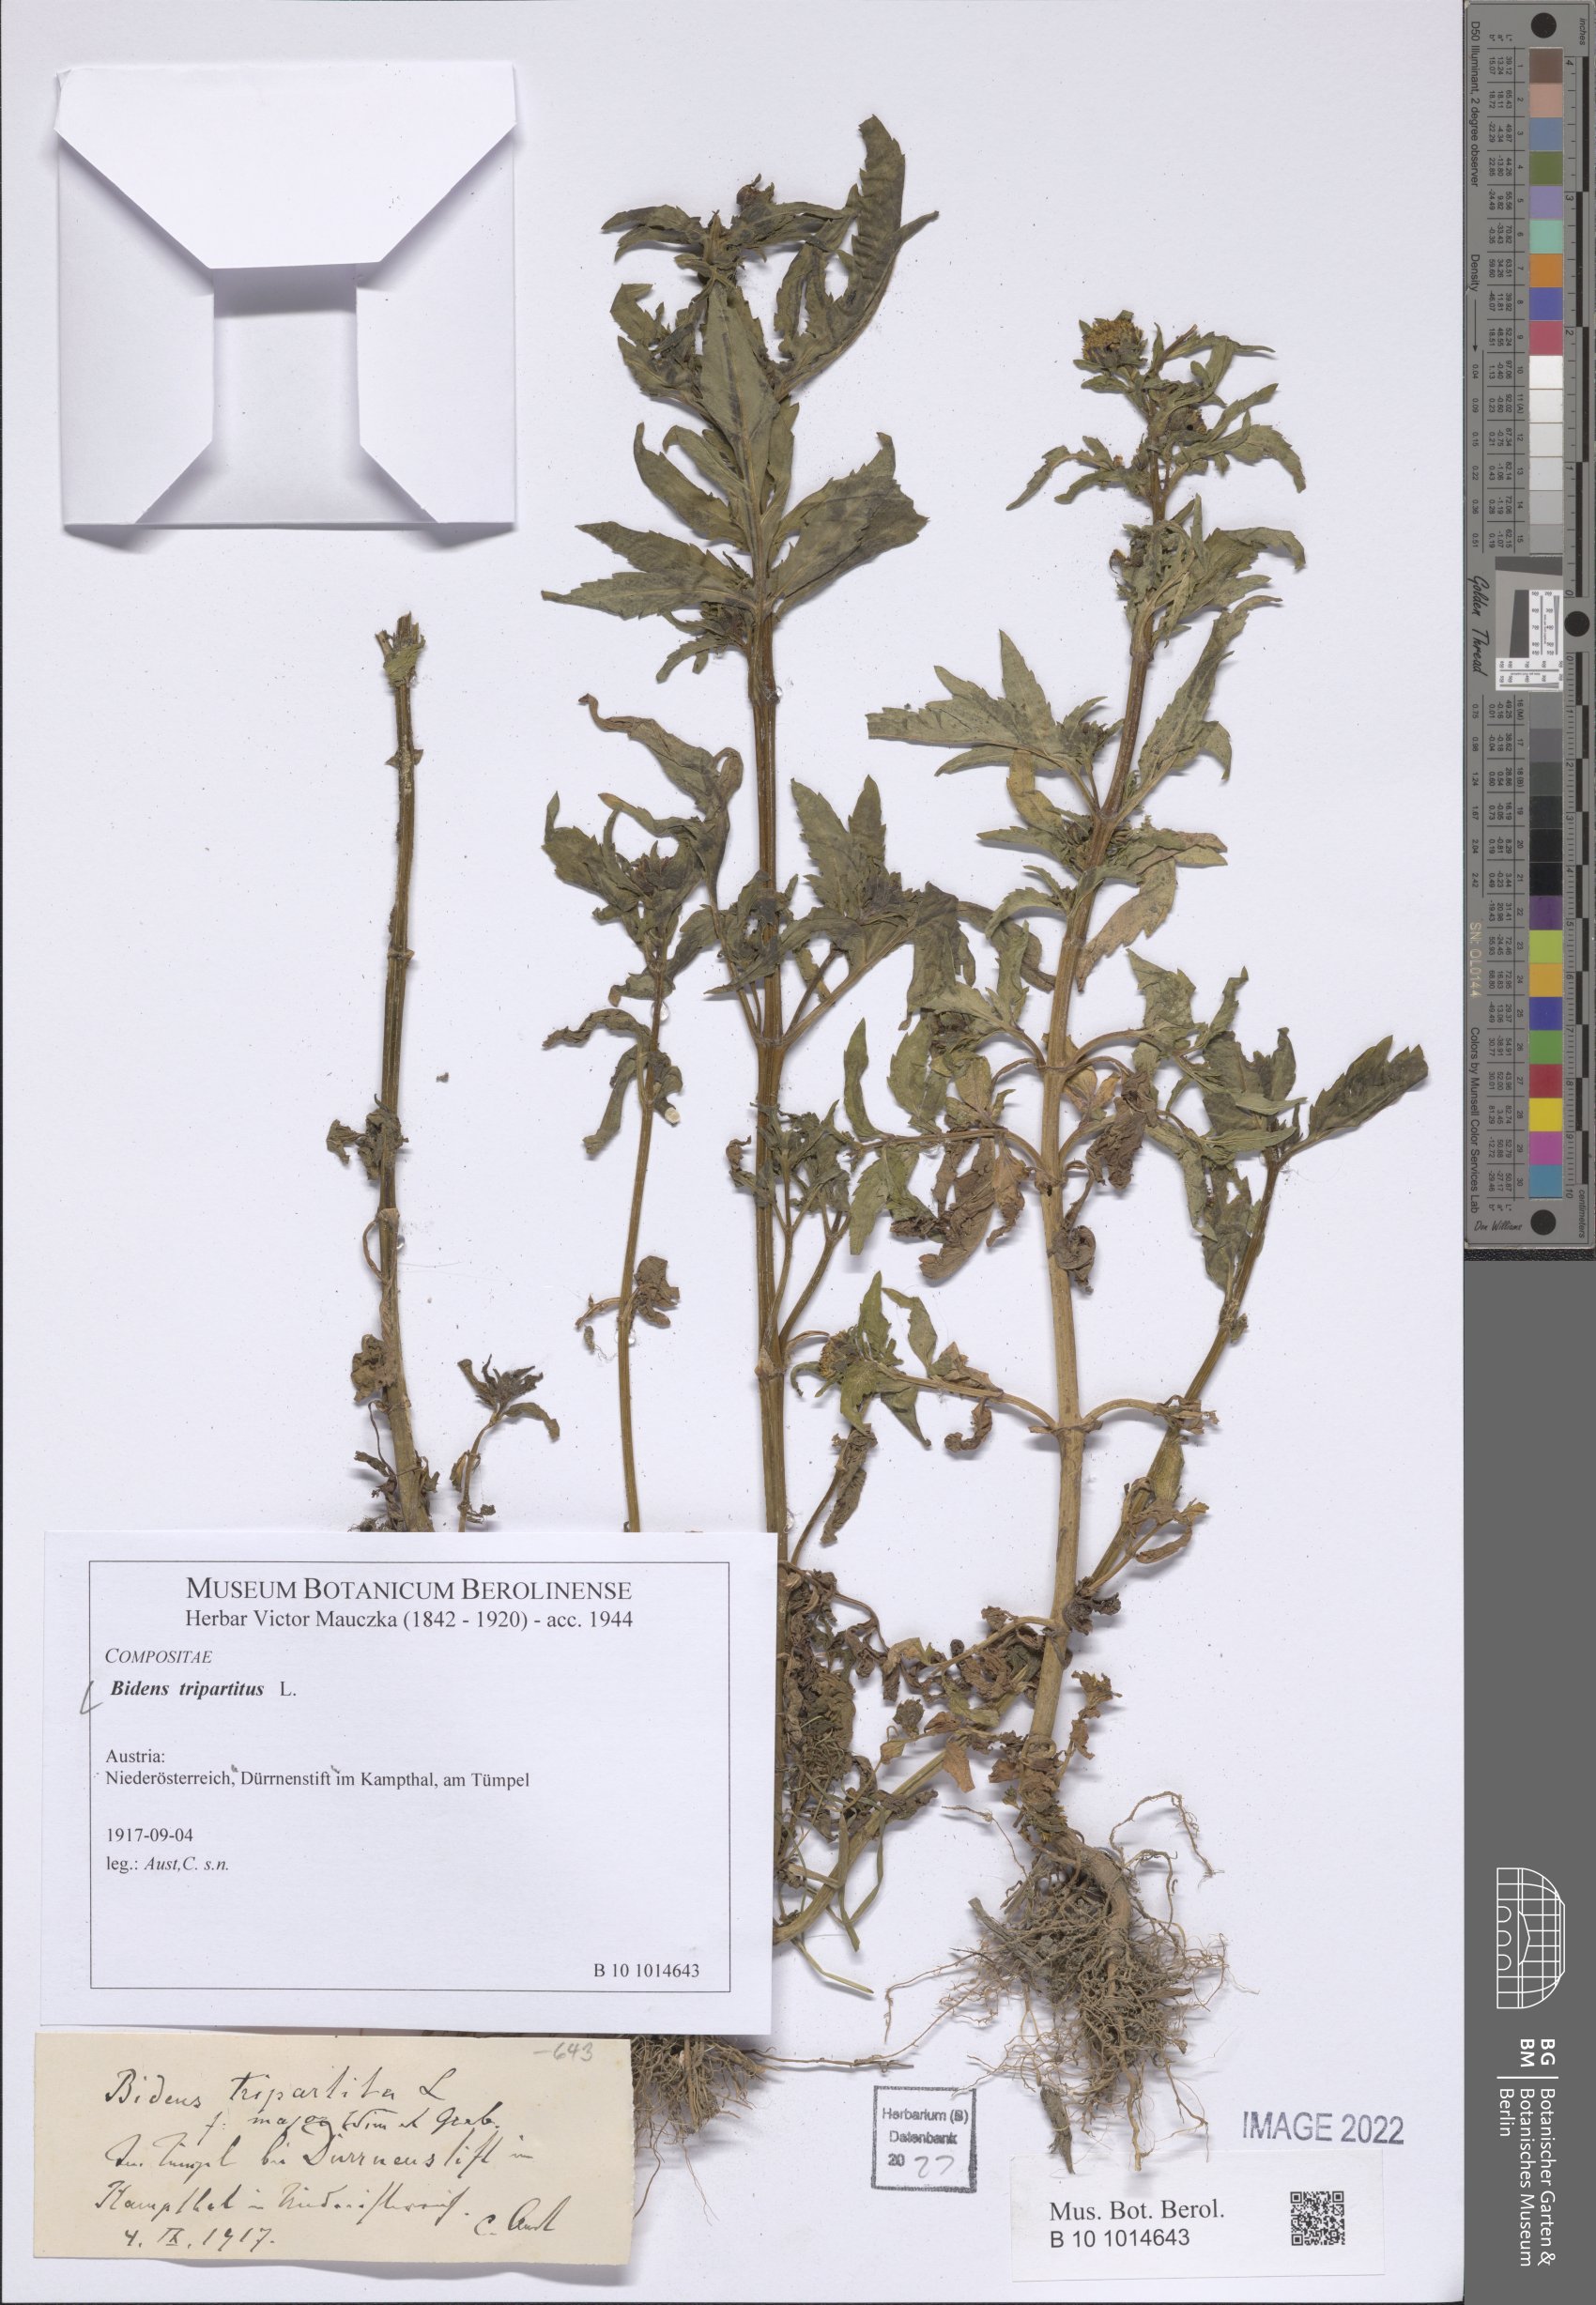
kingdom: Plantae
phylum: Tracheophyta
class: Magnoliopsida
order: Asterales
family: Asteraceae
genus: Bidens
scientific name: Bidens tripartita
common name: Trifid bur-marigold
